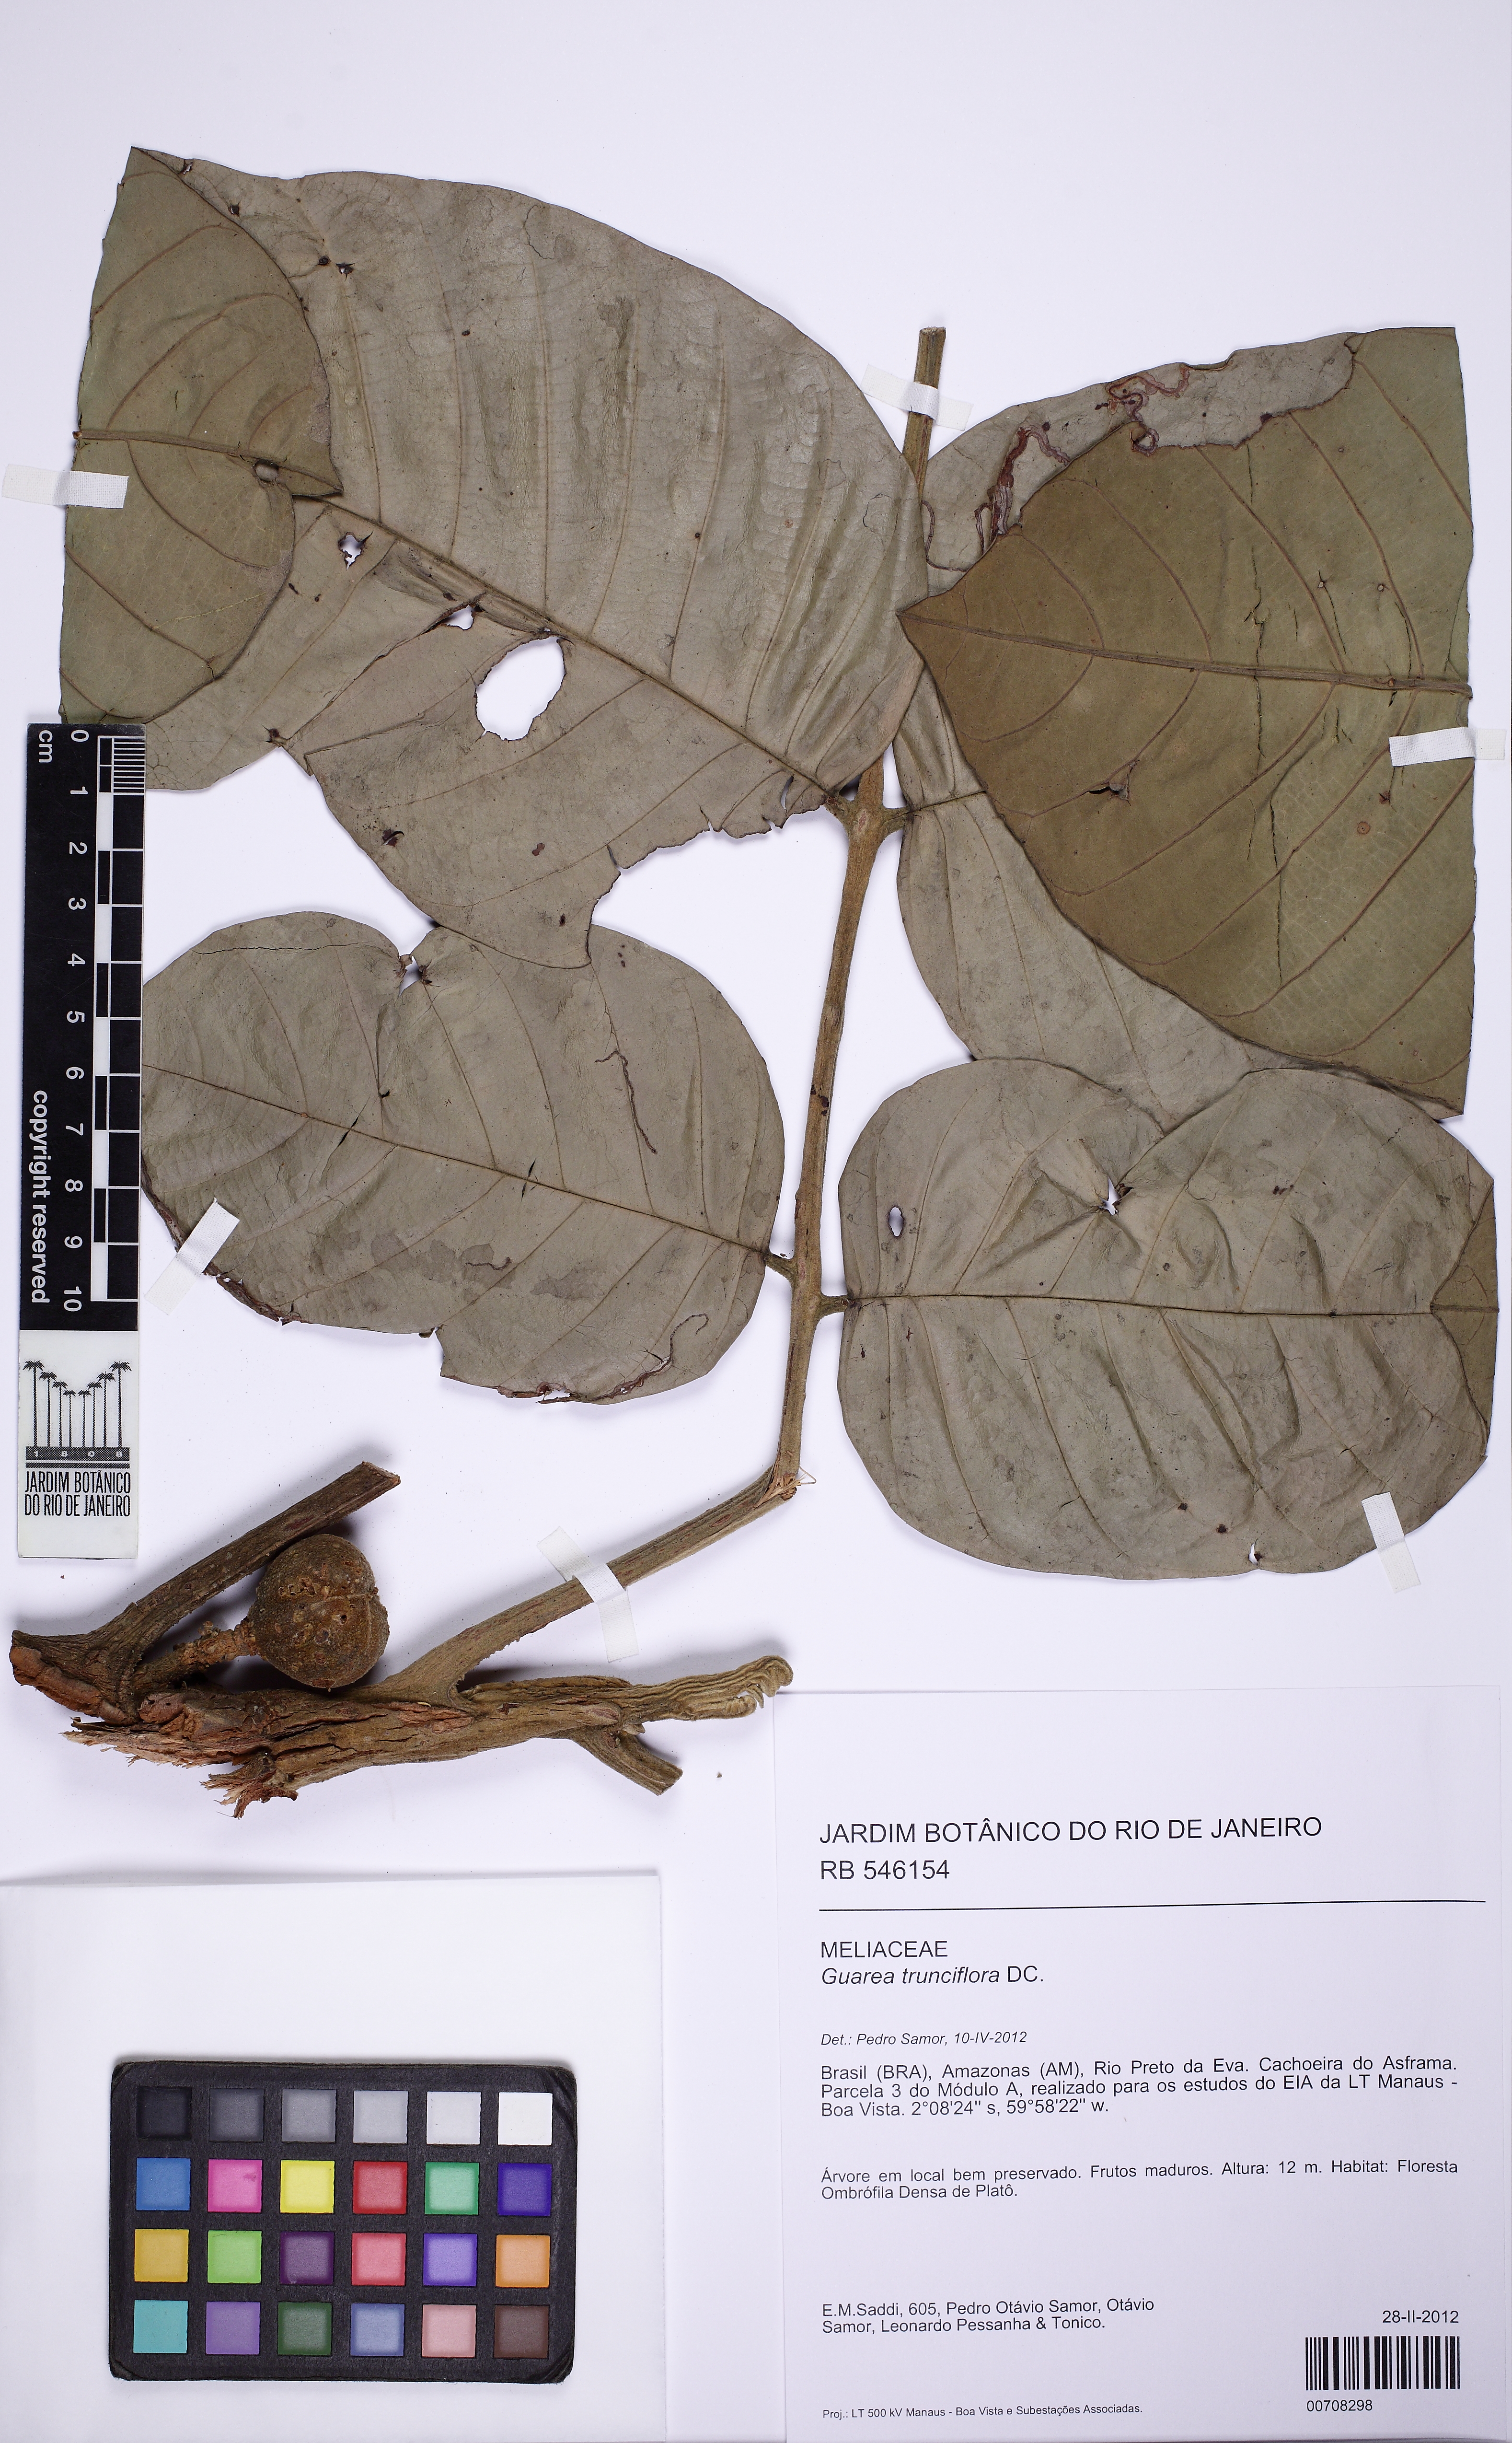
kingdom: Plantae
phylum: Tracheophyta
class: Magnoliopsida
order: Sapindales
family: Meliaceae
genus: Guarea
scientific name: Guarea trunciflora
